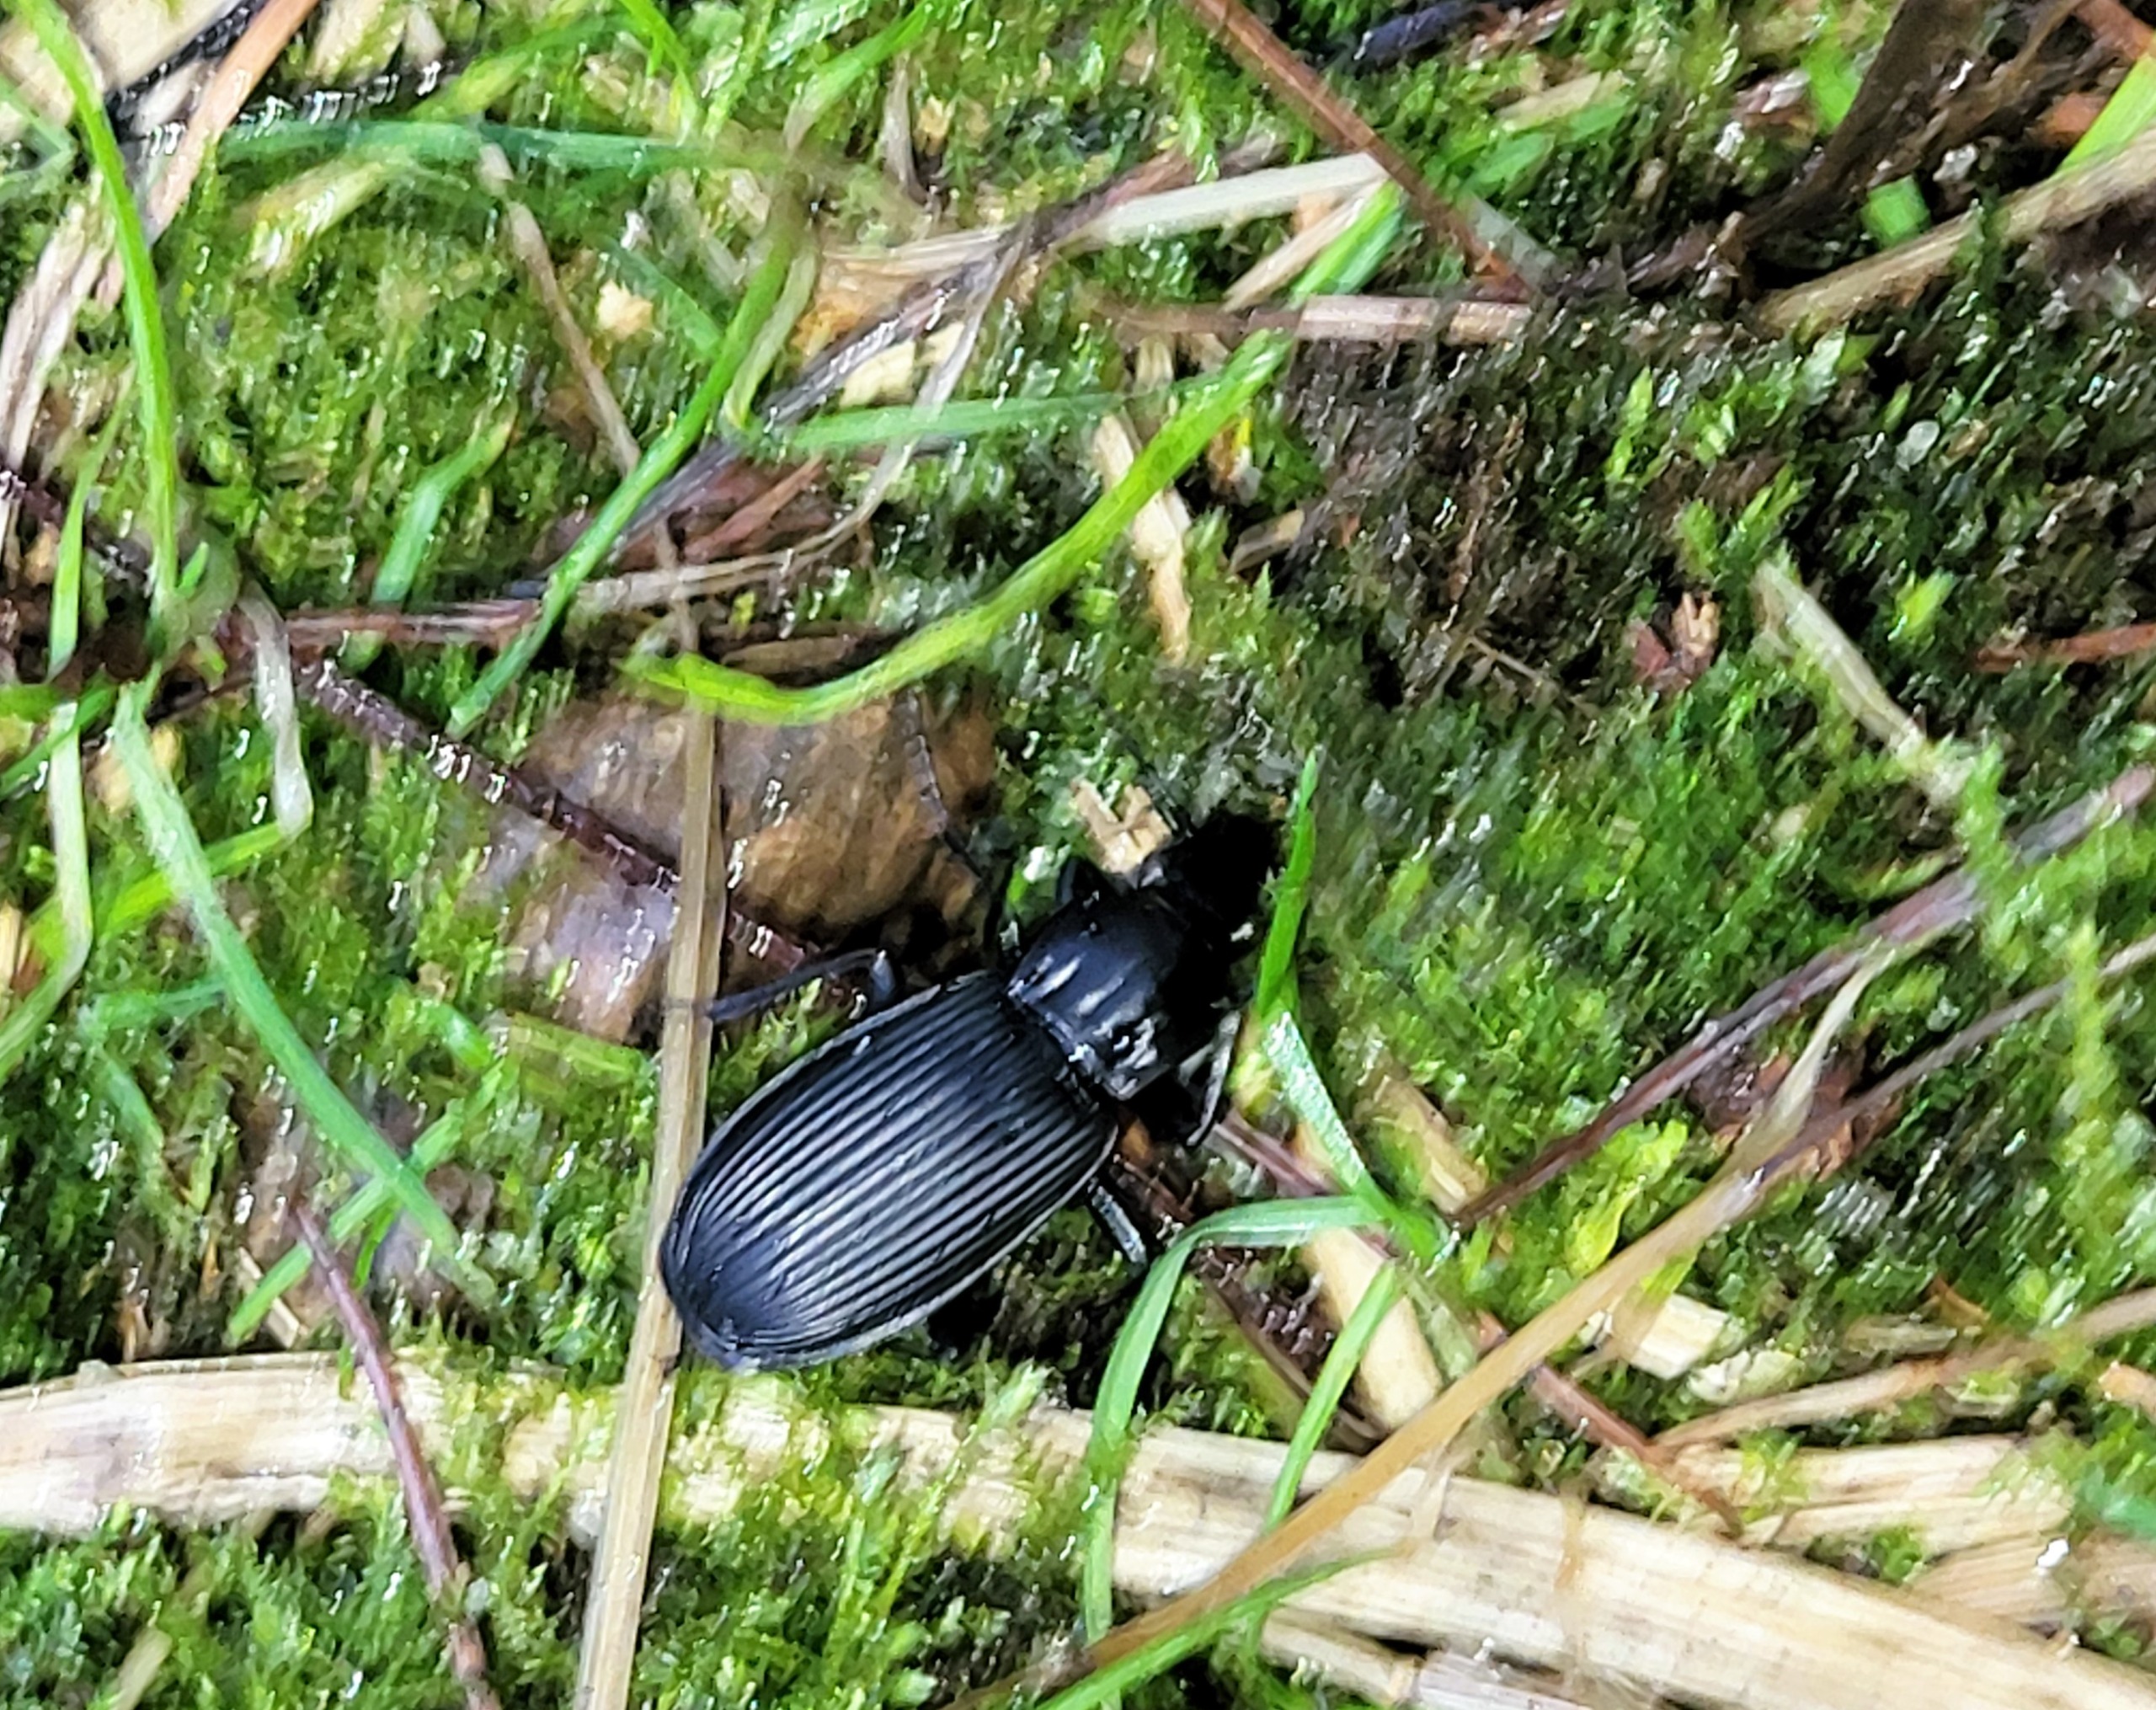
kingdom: Animalia
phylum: Arthropoda
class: Insecta
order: Coleoptera
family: Carabidae
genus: Pterostichus
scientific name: Pterostichus niger
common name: Skovjordløber
